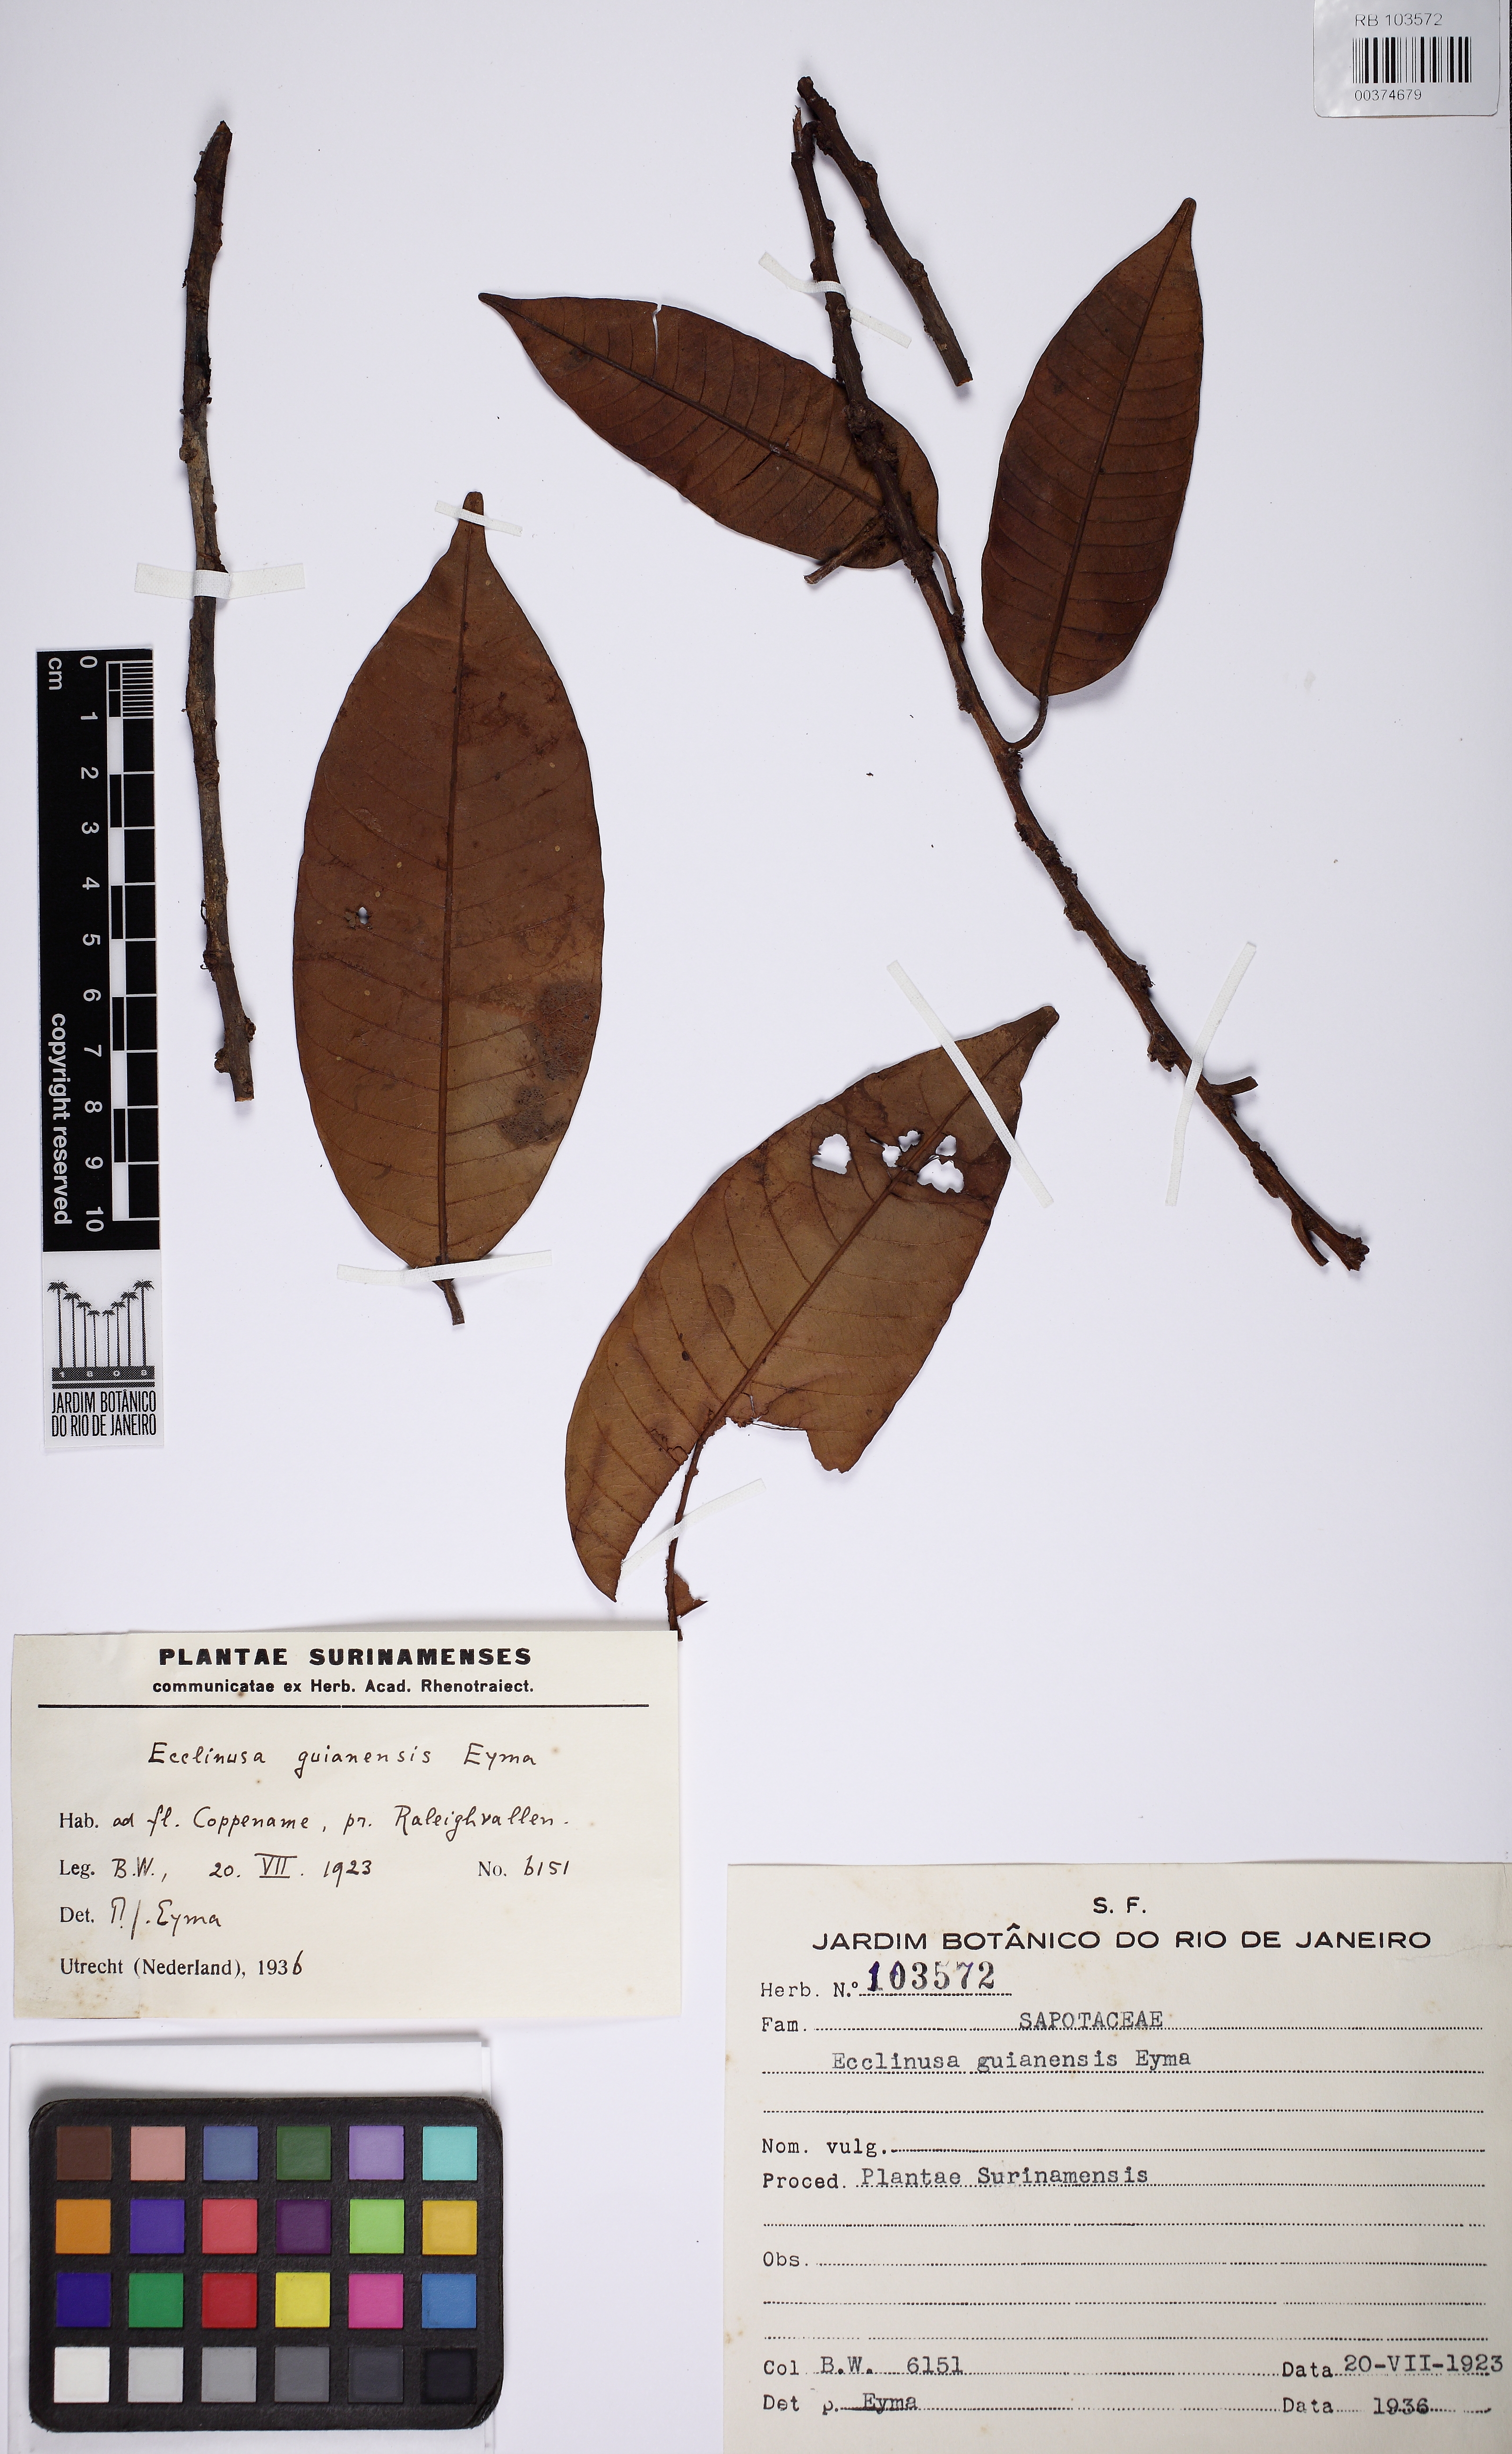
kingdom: Plantae
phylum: Tracheophyta
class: Magnoliopsida
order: Ericales
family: Sapotaceae
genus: Ecclinusa
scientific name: Ecclinusa guianensis
